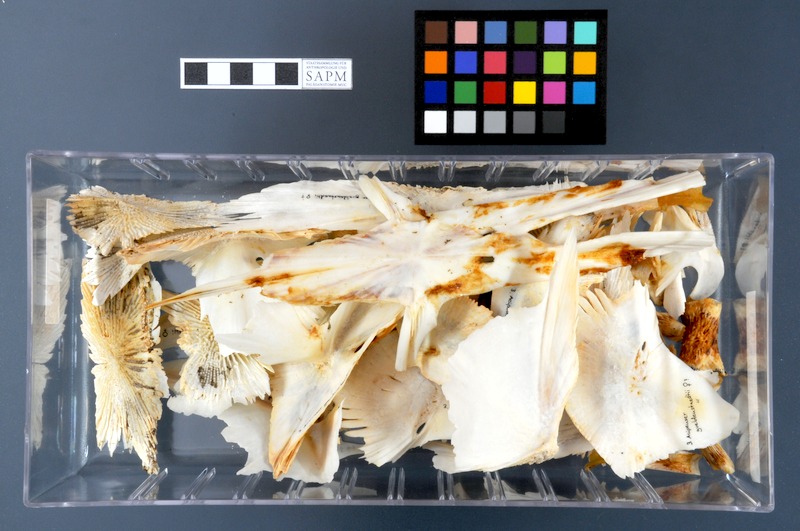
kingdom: Animalia
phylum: Chordata
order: Acipenseriformes
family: Acipenseridae
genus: Acipenser
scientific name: Acipenser gueldenstaedtii
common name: Russian sturgeon
